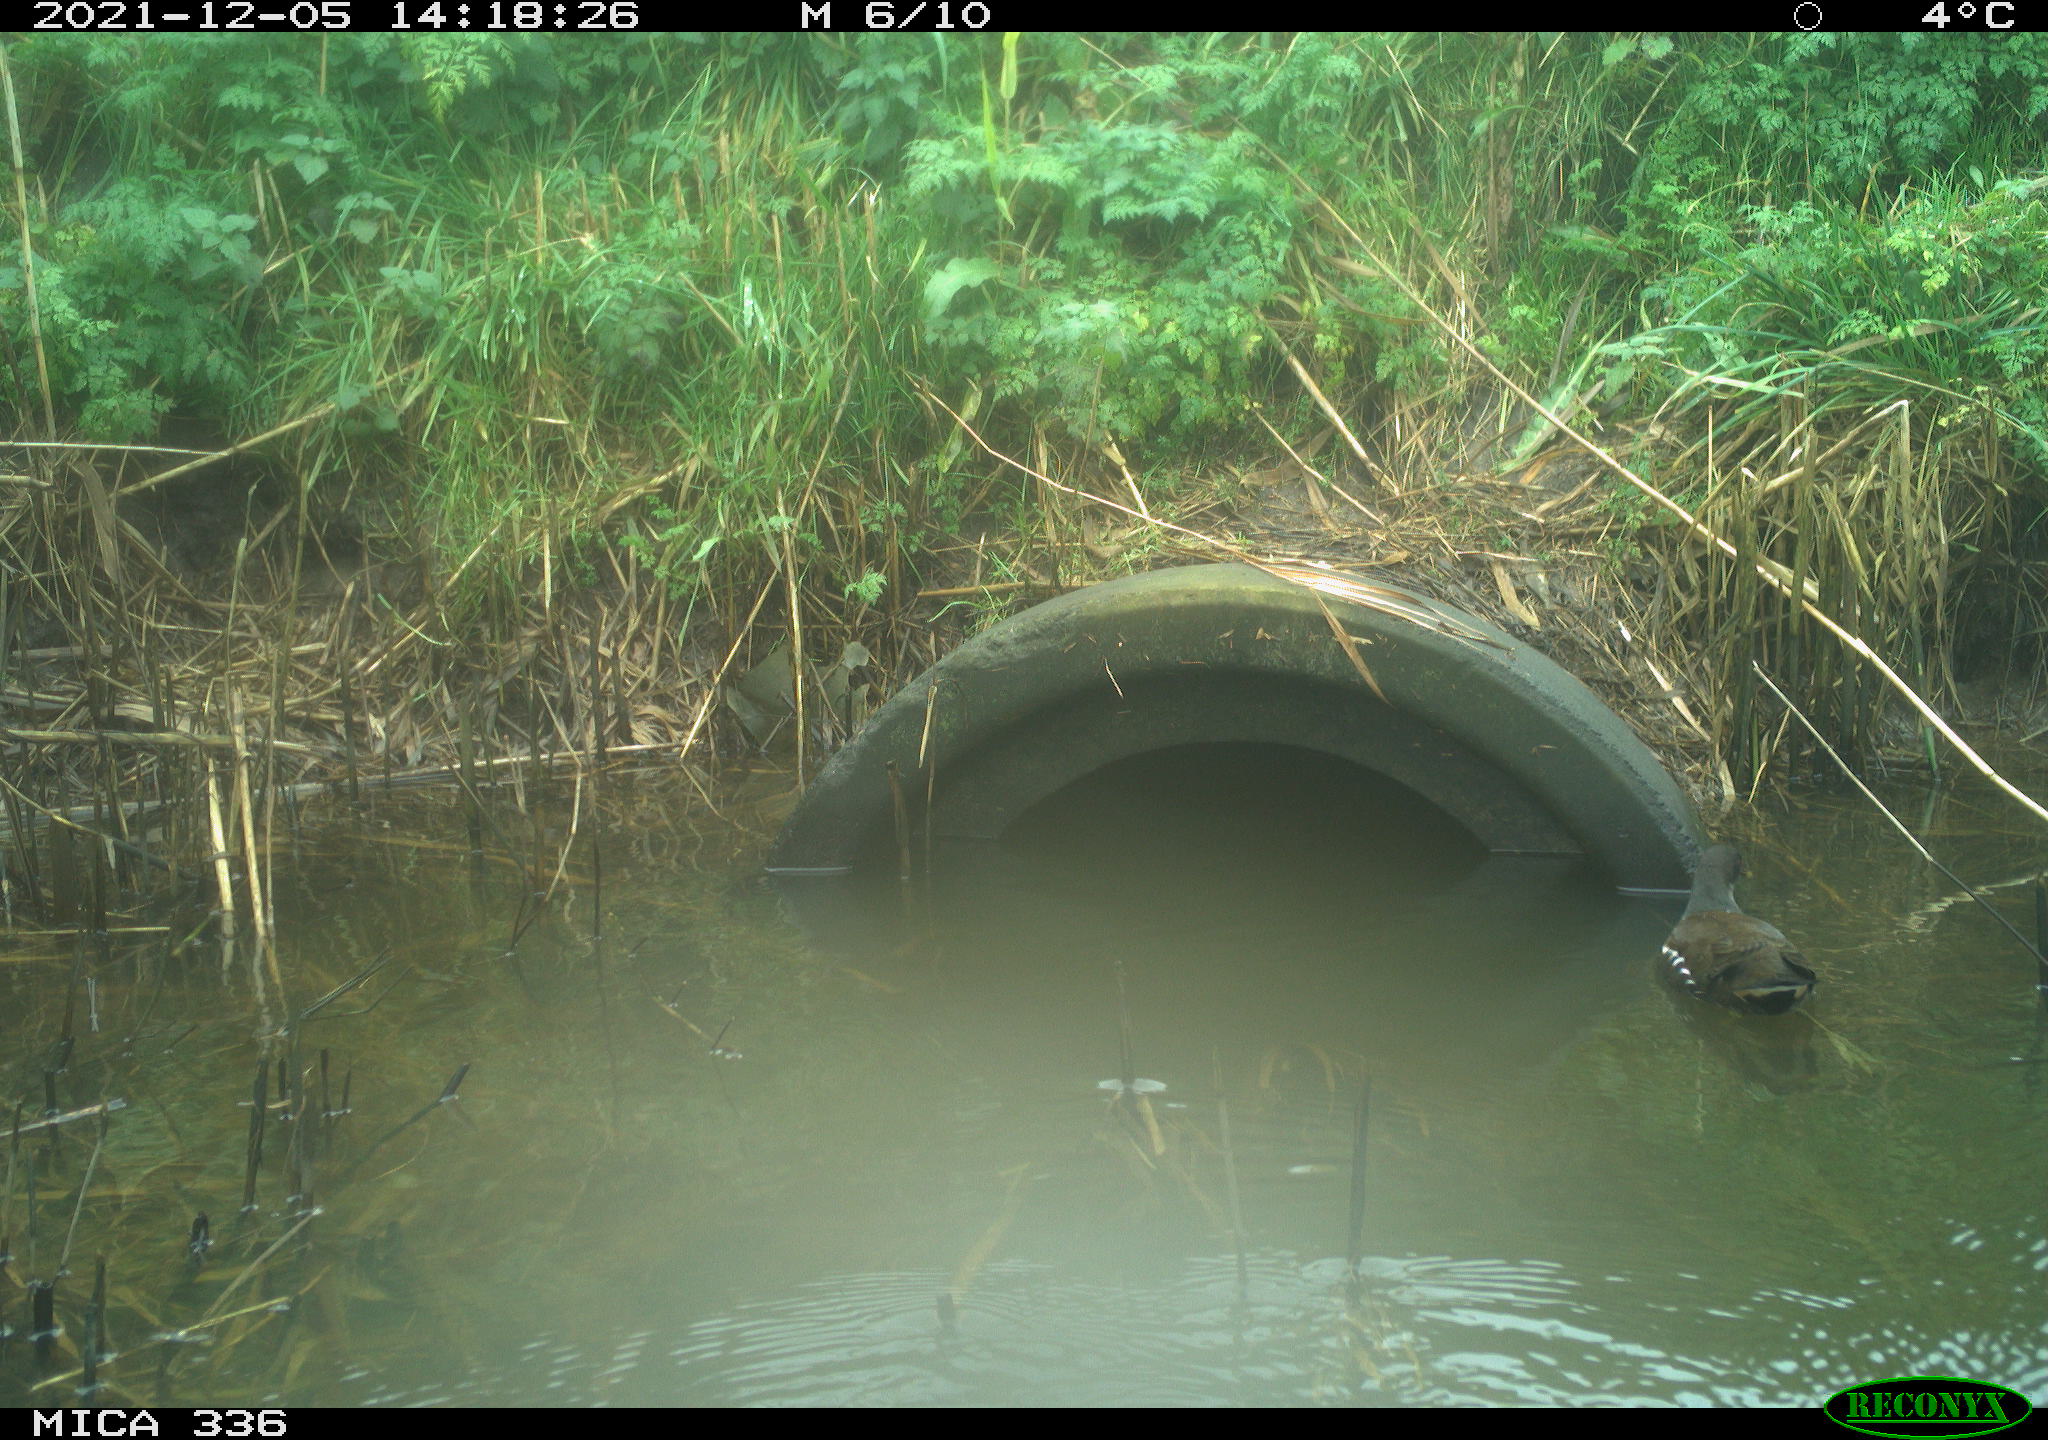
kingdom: Animalia
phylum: Chordata
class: Aves
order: Gruiformes
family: Rallidae
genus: Gallinula
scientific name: Gallinula chloropus
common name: Common moorhen
